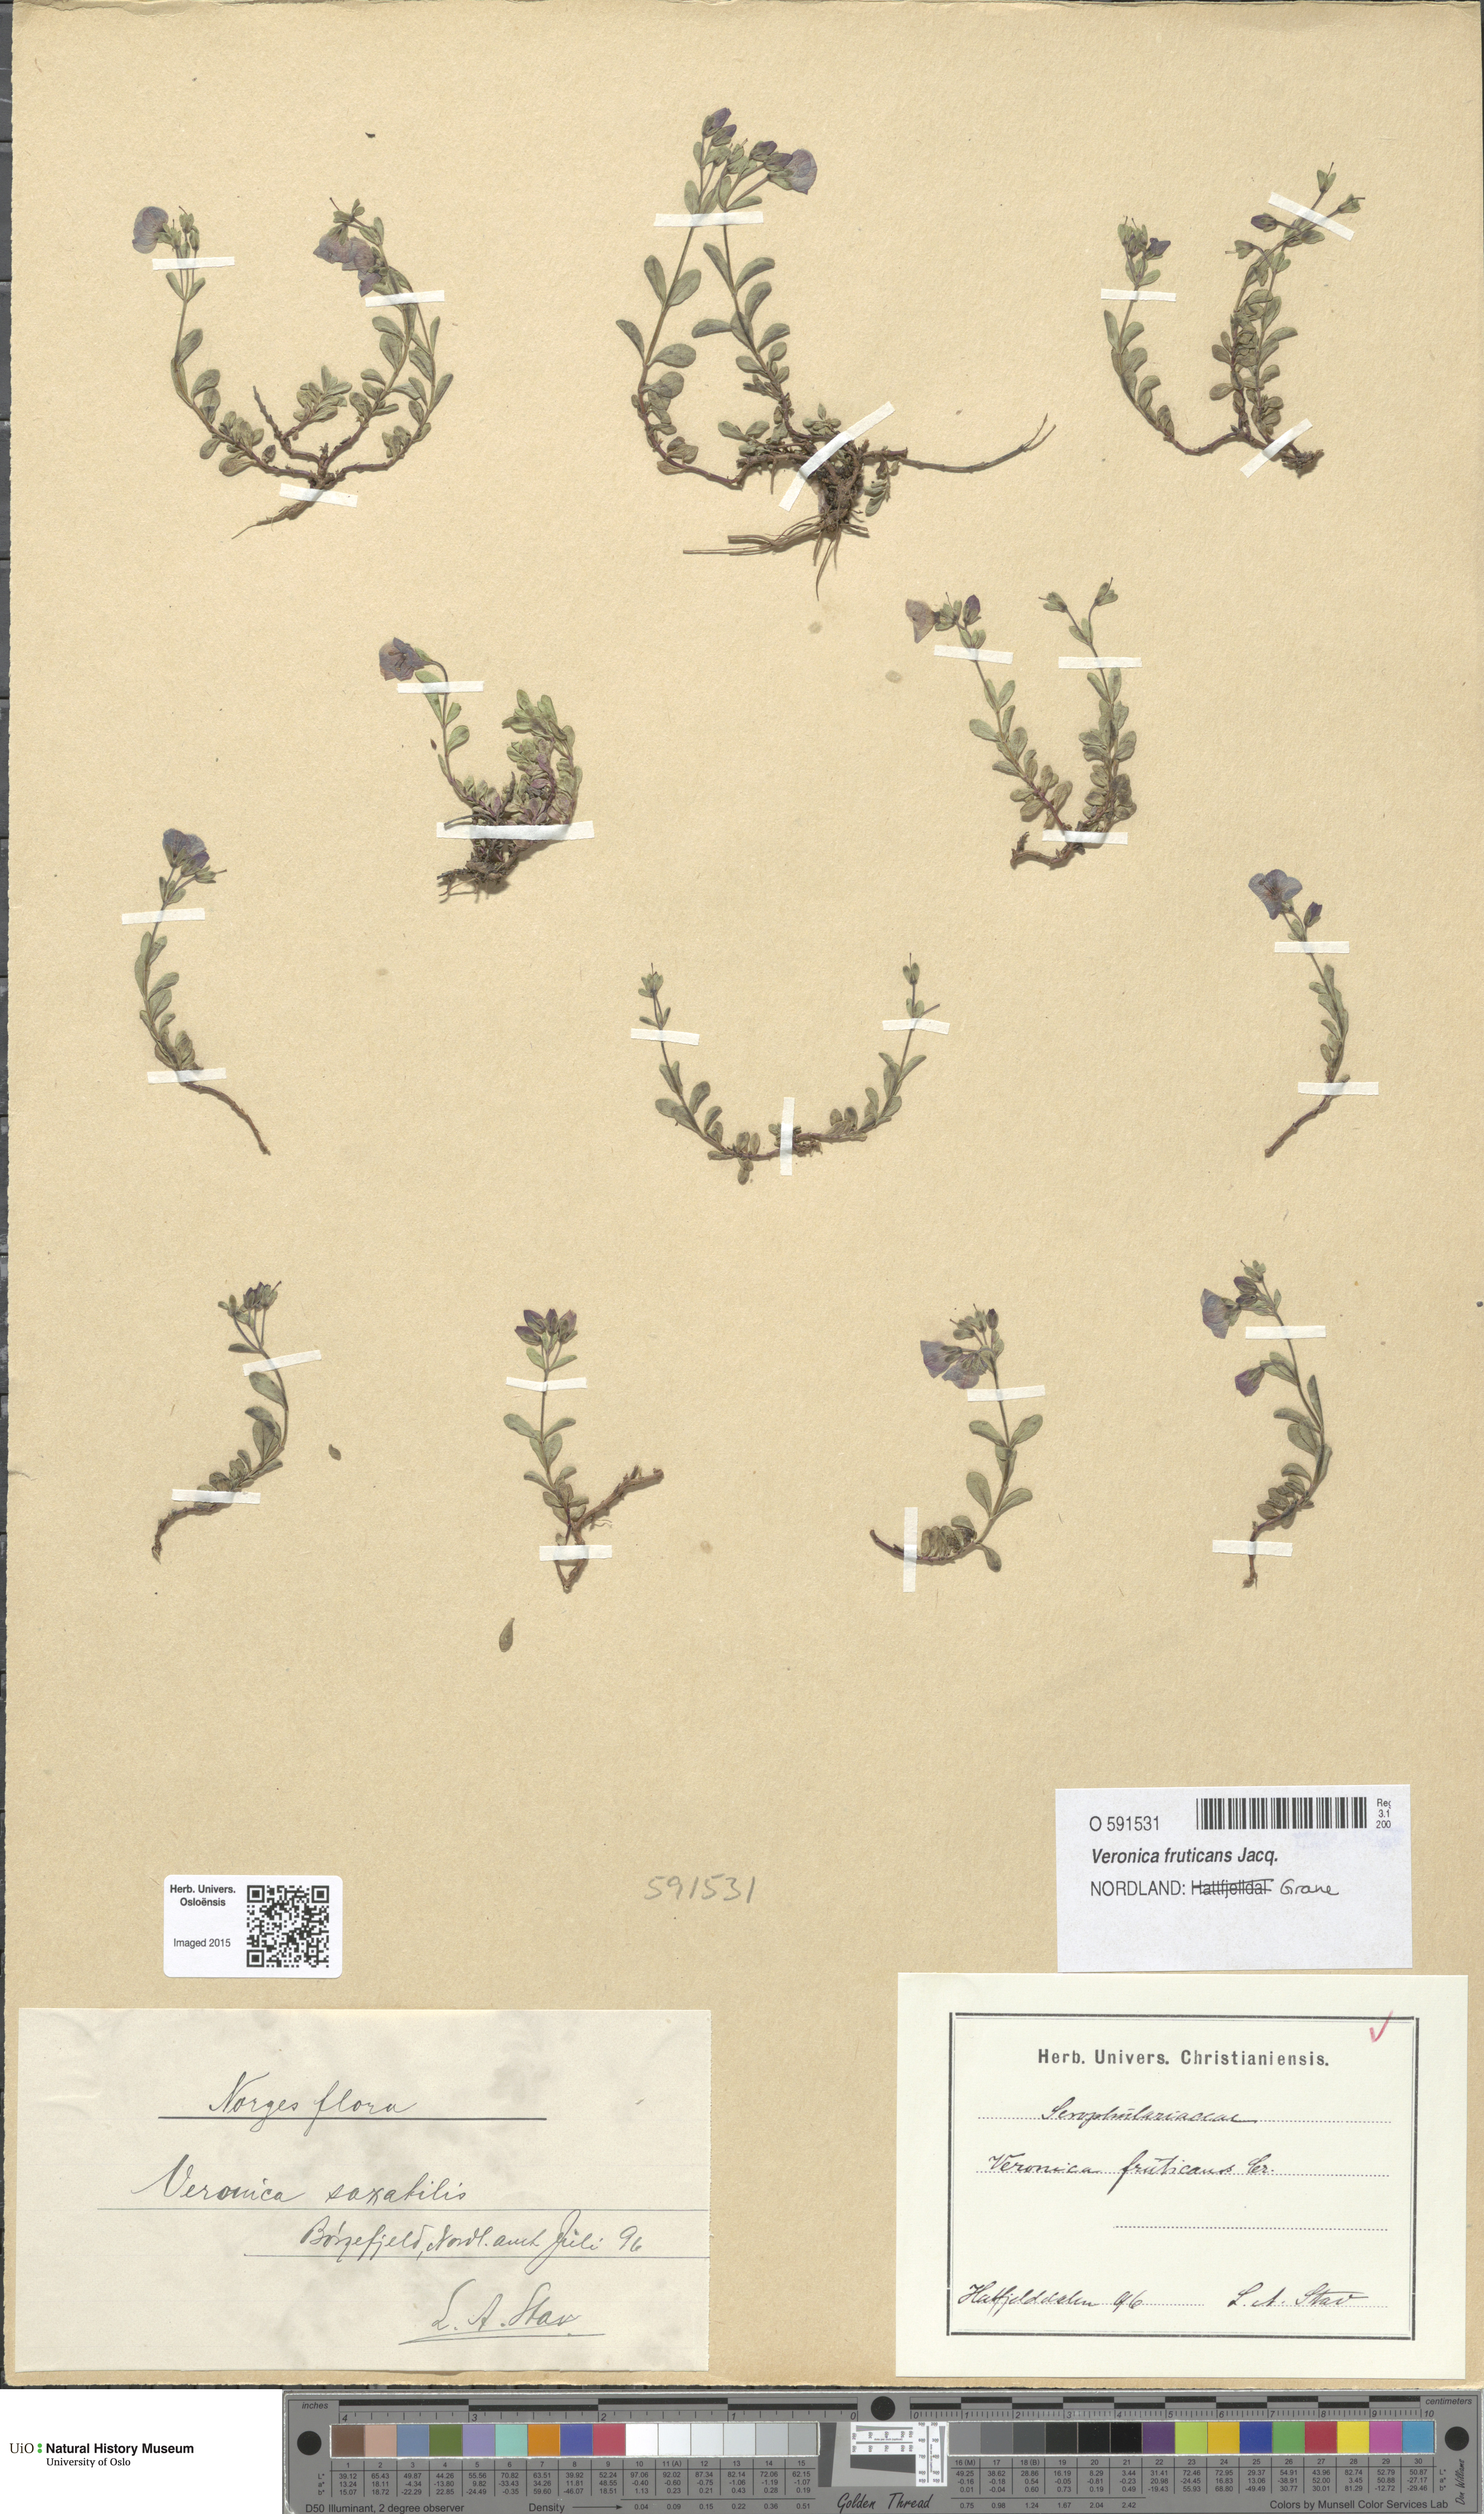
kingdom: Plantae
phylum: Tracheophyta
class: Magnoliopsida
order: Lamiales
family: Plantaginaceae
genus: Veronica
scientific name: Veronica fruticans
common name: Rock speedwell
